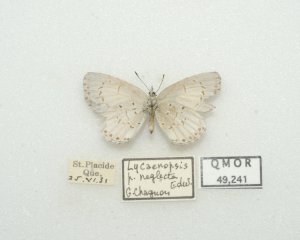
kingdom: Animalia
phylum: Arthropoda
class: Insecta
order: Lepidoptera
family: Lycaenidae
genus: Cyaniris
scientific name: Cyaniris neglecta
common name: Summer Azure
